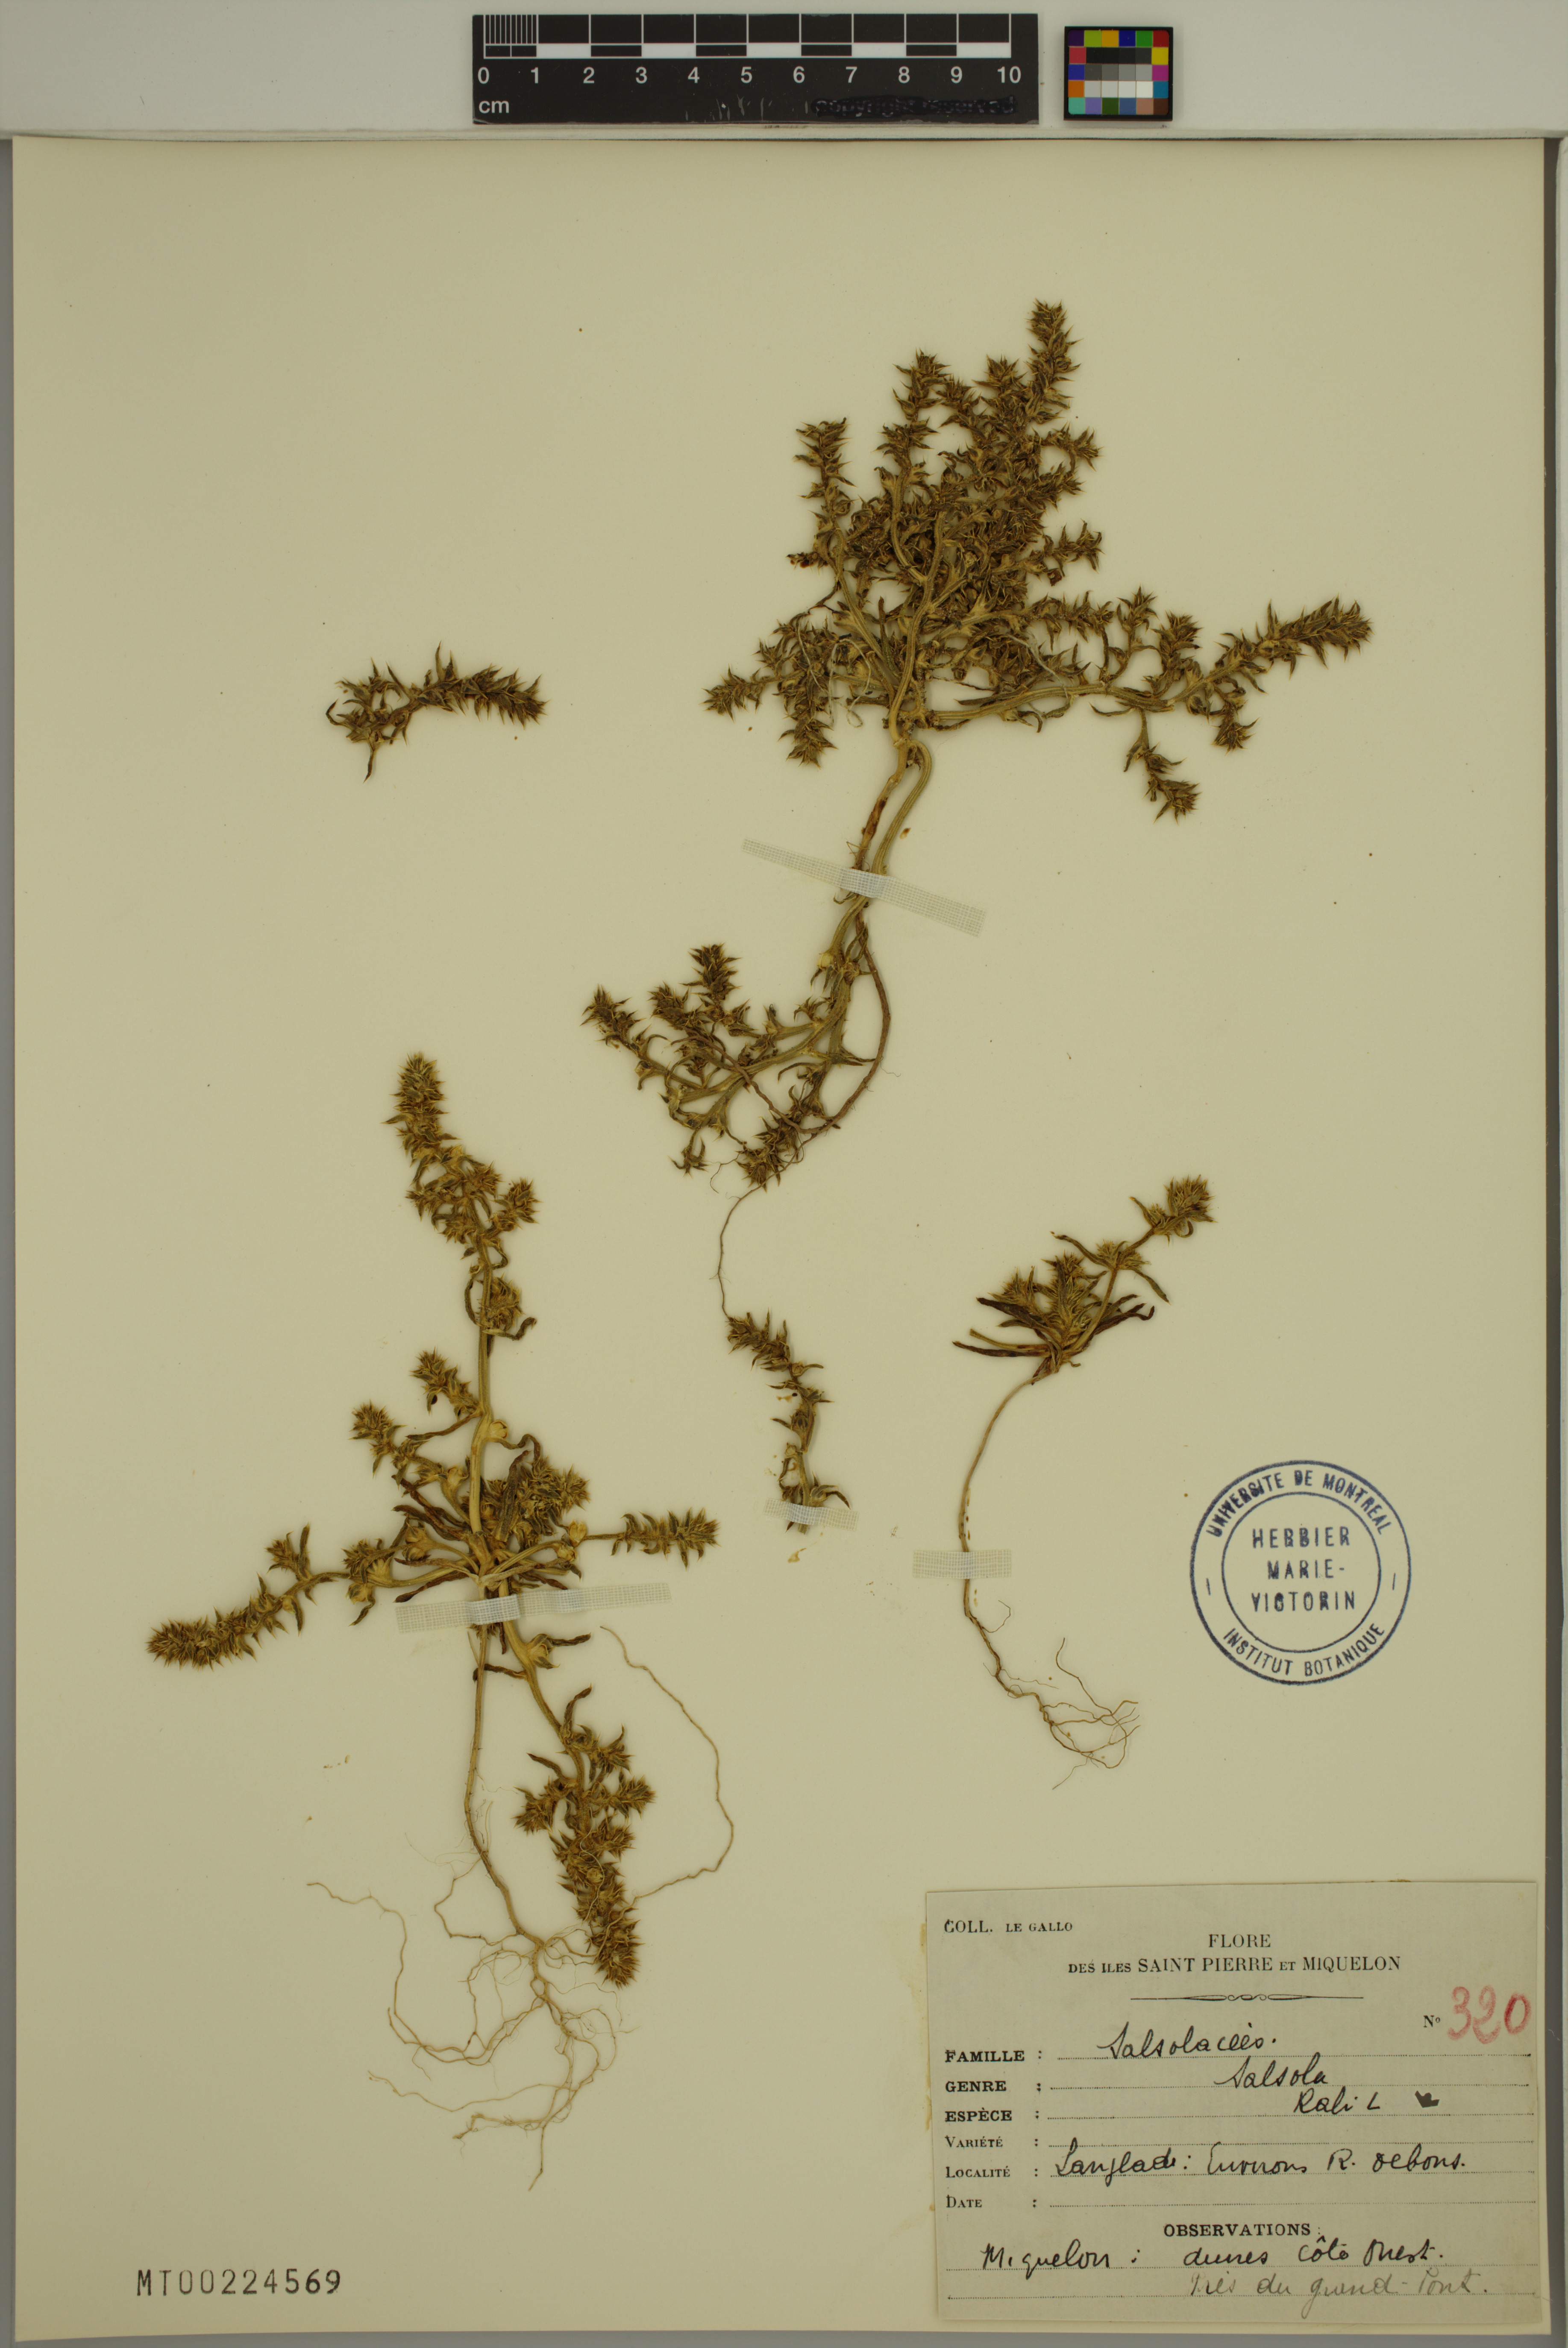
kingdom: Plantae
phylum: Tracheophyta
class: Magnoliopsida
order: Caryophyllales
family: Amaranthaceae
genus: Salsola
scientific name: Salsola kali
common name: Saltwort
